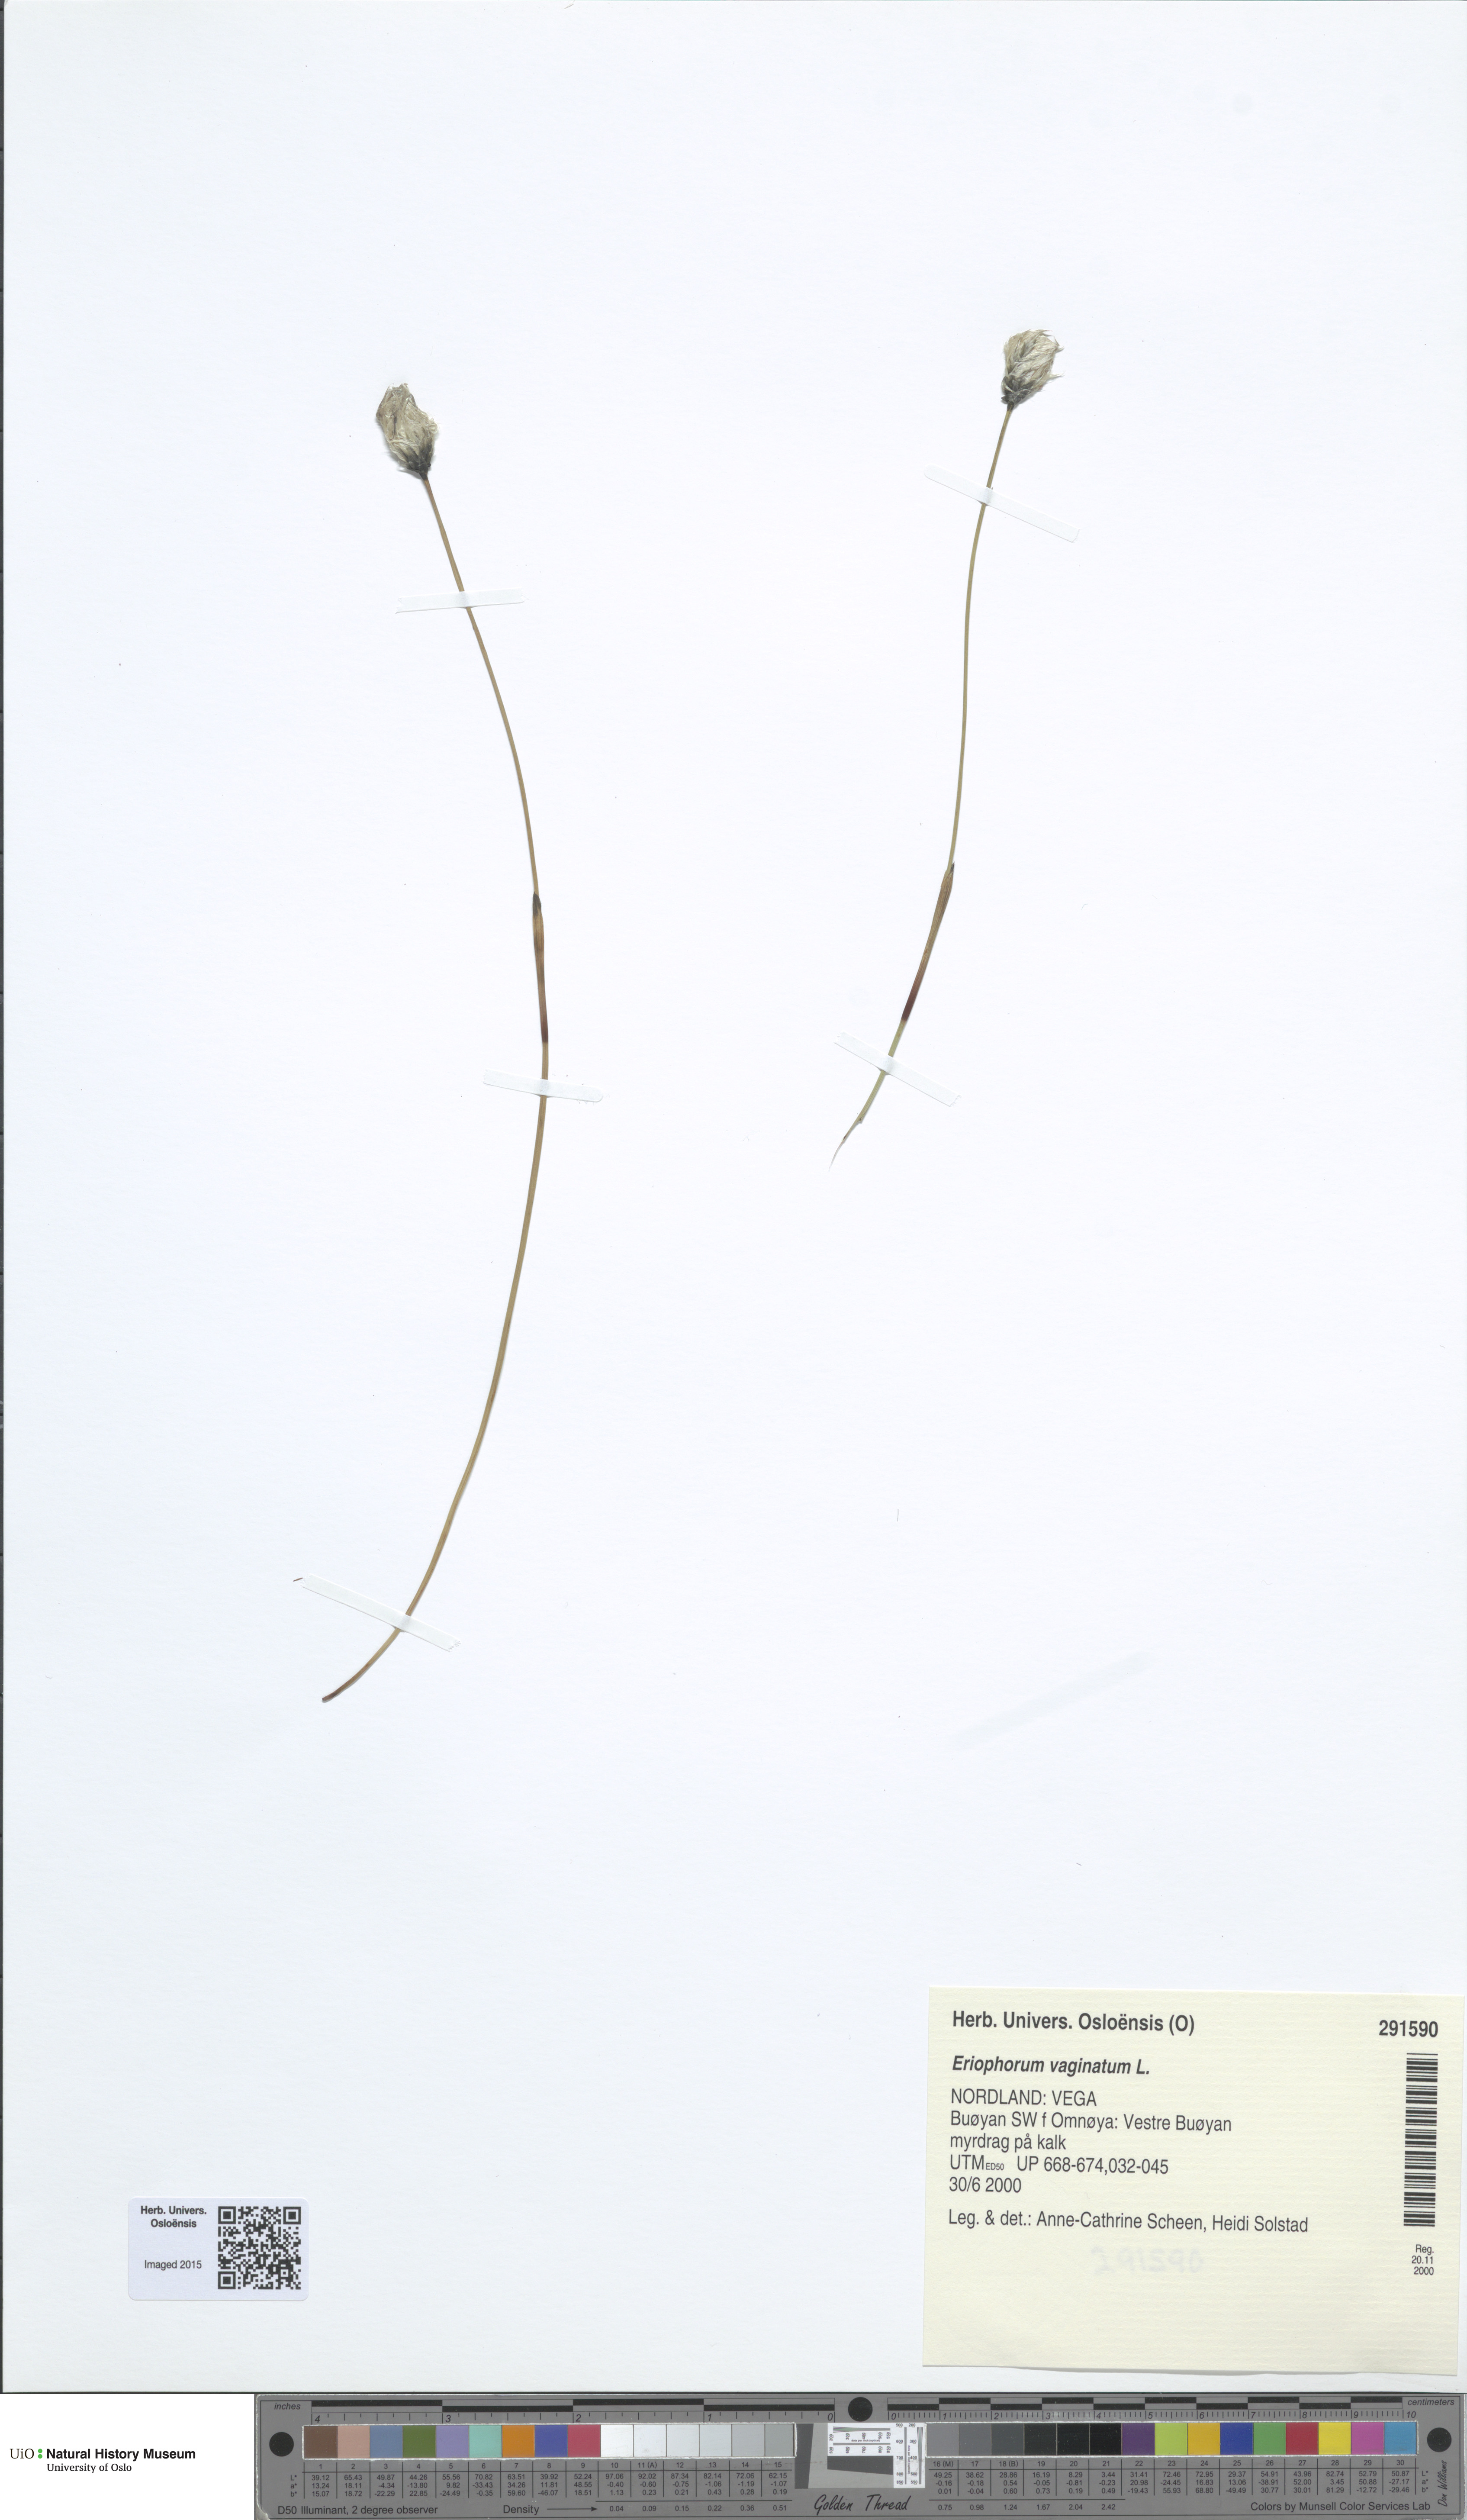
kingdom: Plantae
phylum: Tracheophyta
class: Liliopsida
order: Poales
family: Cyperaceae
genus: Eriophorum
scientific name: Eriophorum vaginatum
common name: Hare's-tail cottongrass
